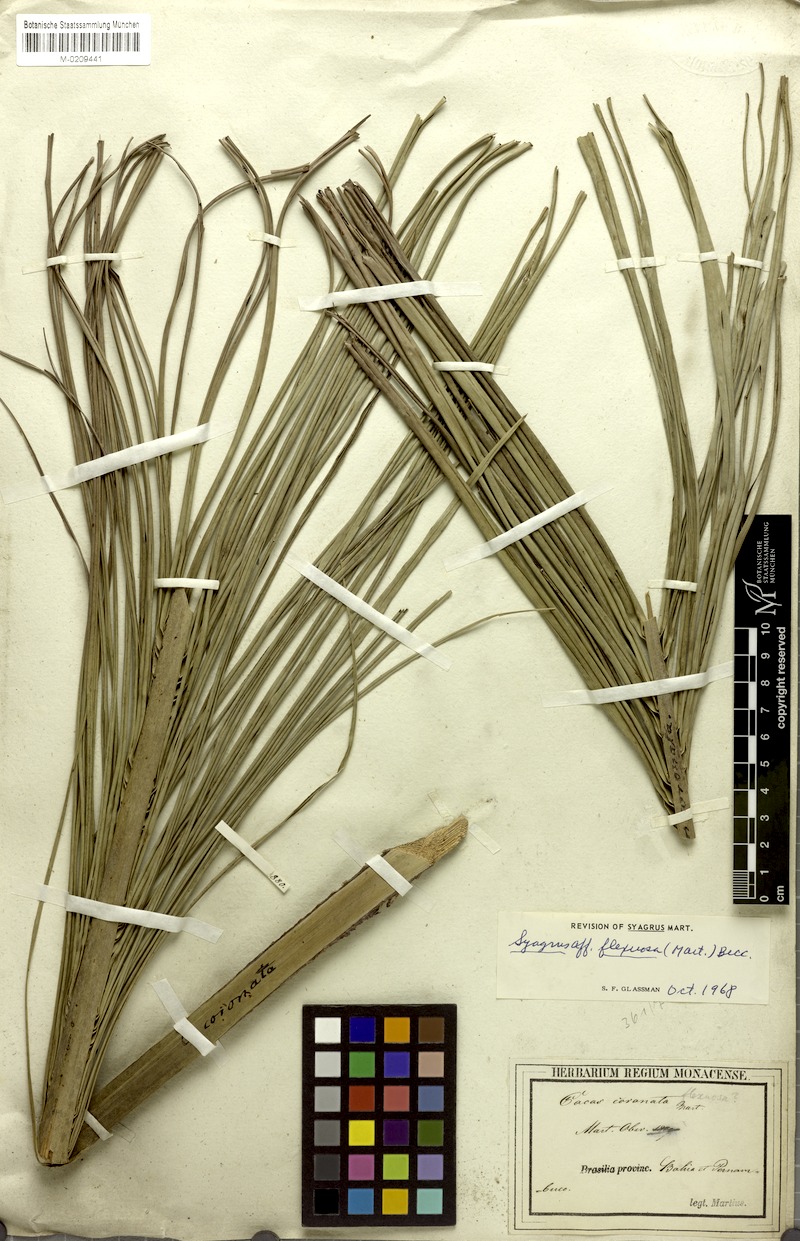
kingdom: Plantae
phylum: Tracheophyta
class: Liliopsida
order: Arecales
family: Arecaceae
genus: Syagrus
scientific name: Syagrus flexuosa
